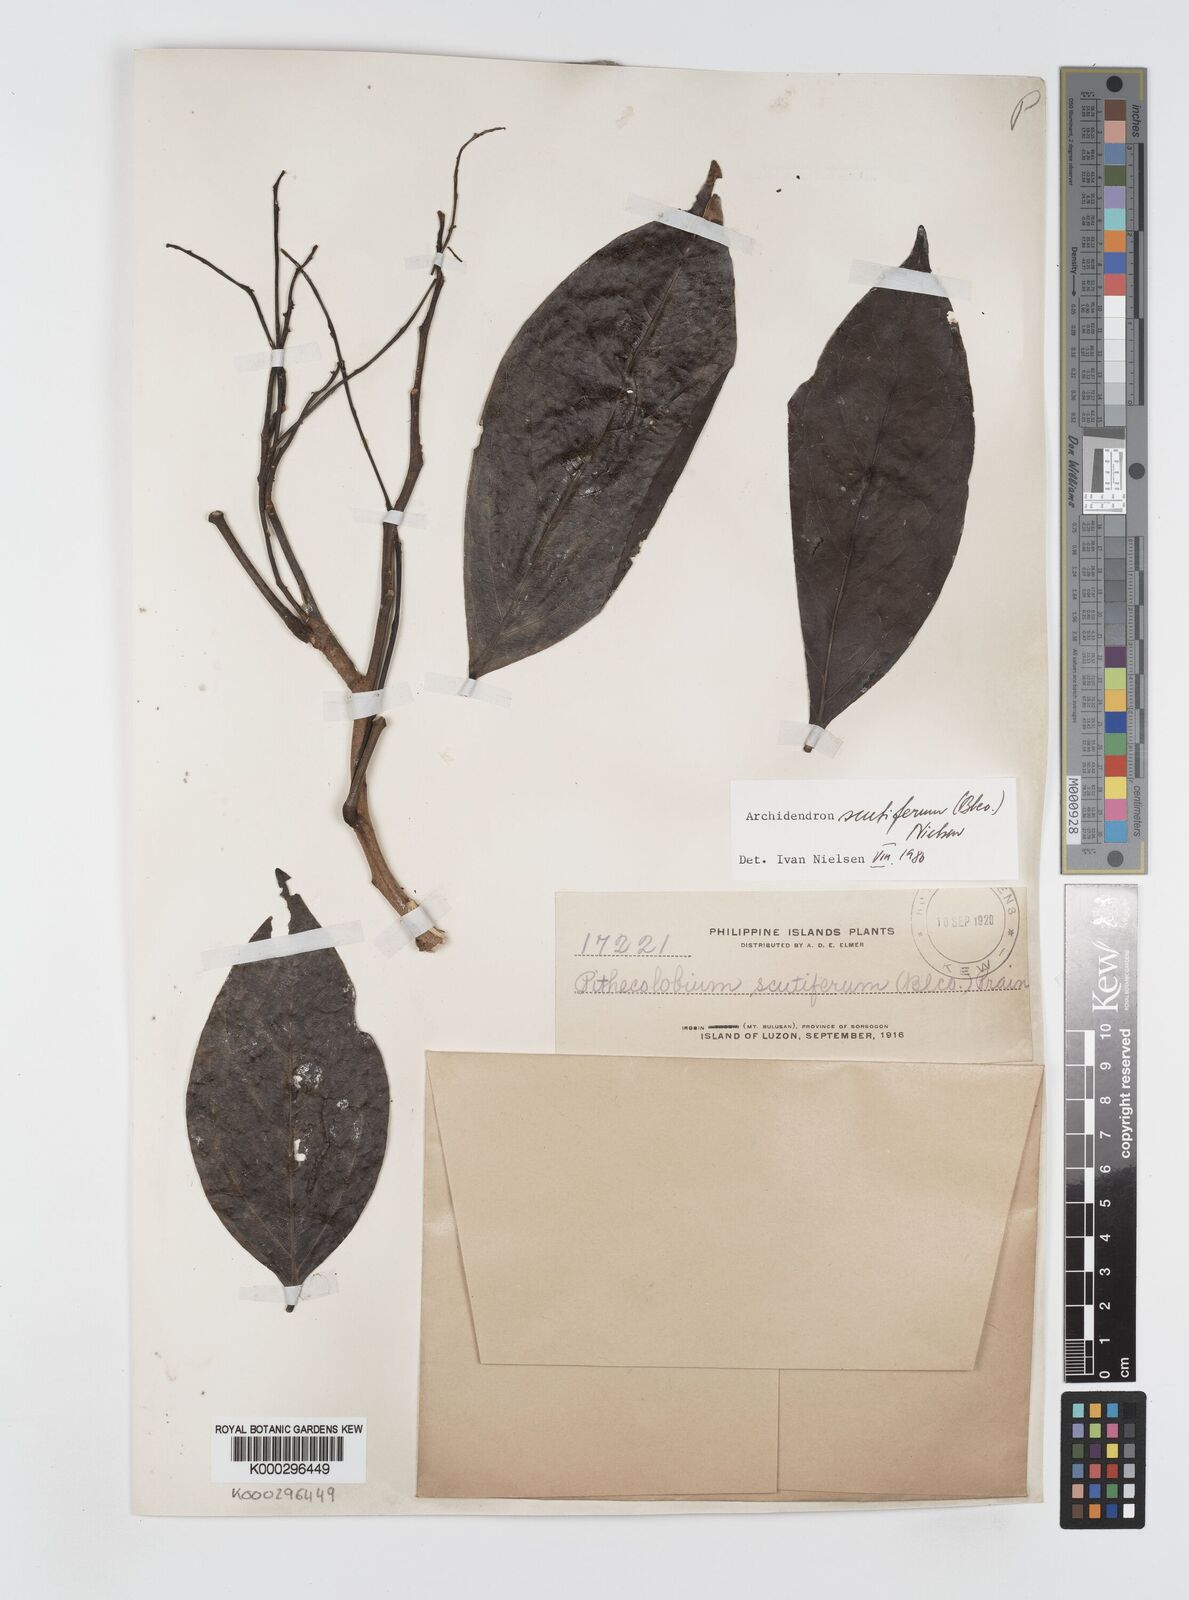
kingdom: Plantae
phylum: Tracheophyta
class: Magnoliopsida
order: Fabales
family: Fabaceae
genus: Archidendron
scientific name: Archidendron scutiferum
